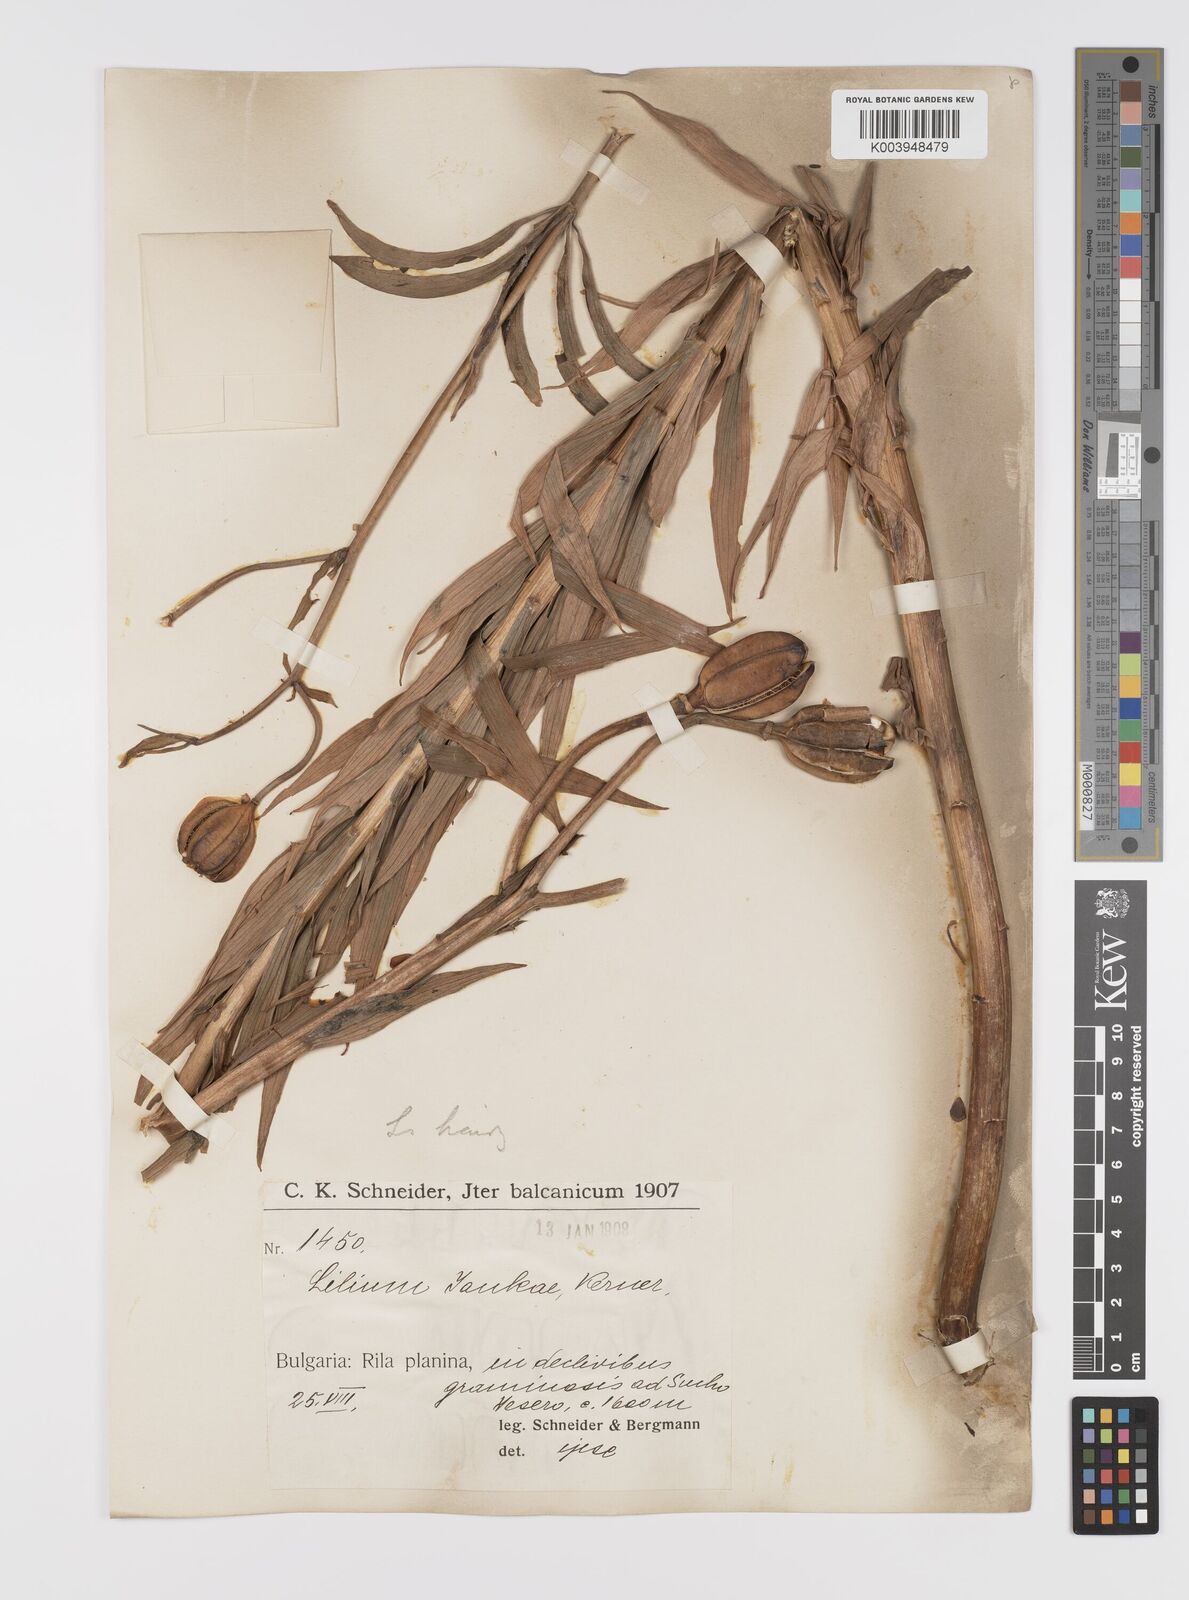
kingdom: Plantae
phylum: Tracheophyta
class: Liliopsida
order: Liliales
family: Liliaceae
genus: Lilium
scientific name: Lilium jankae
